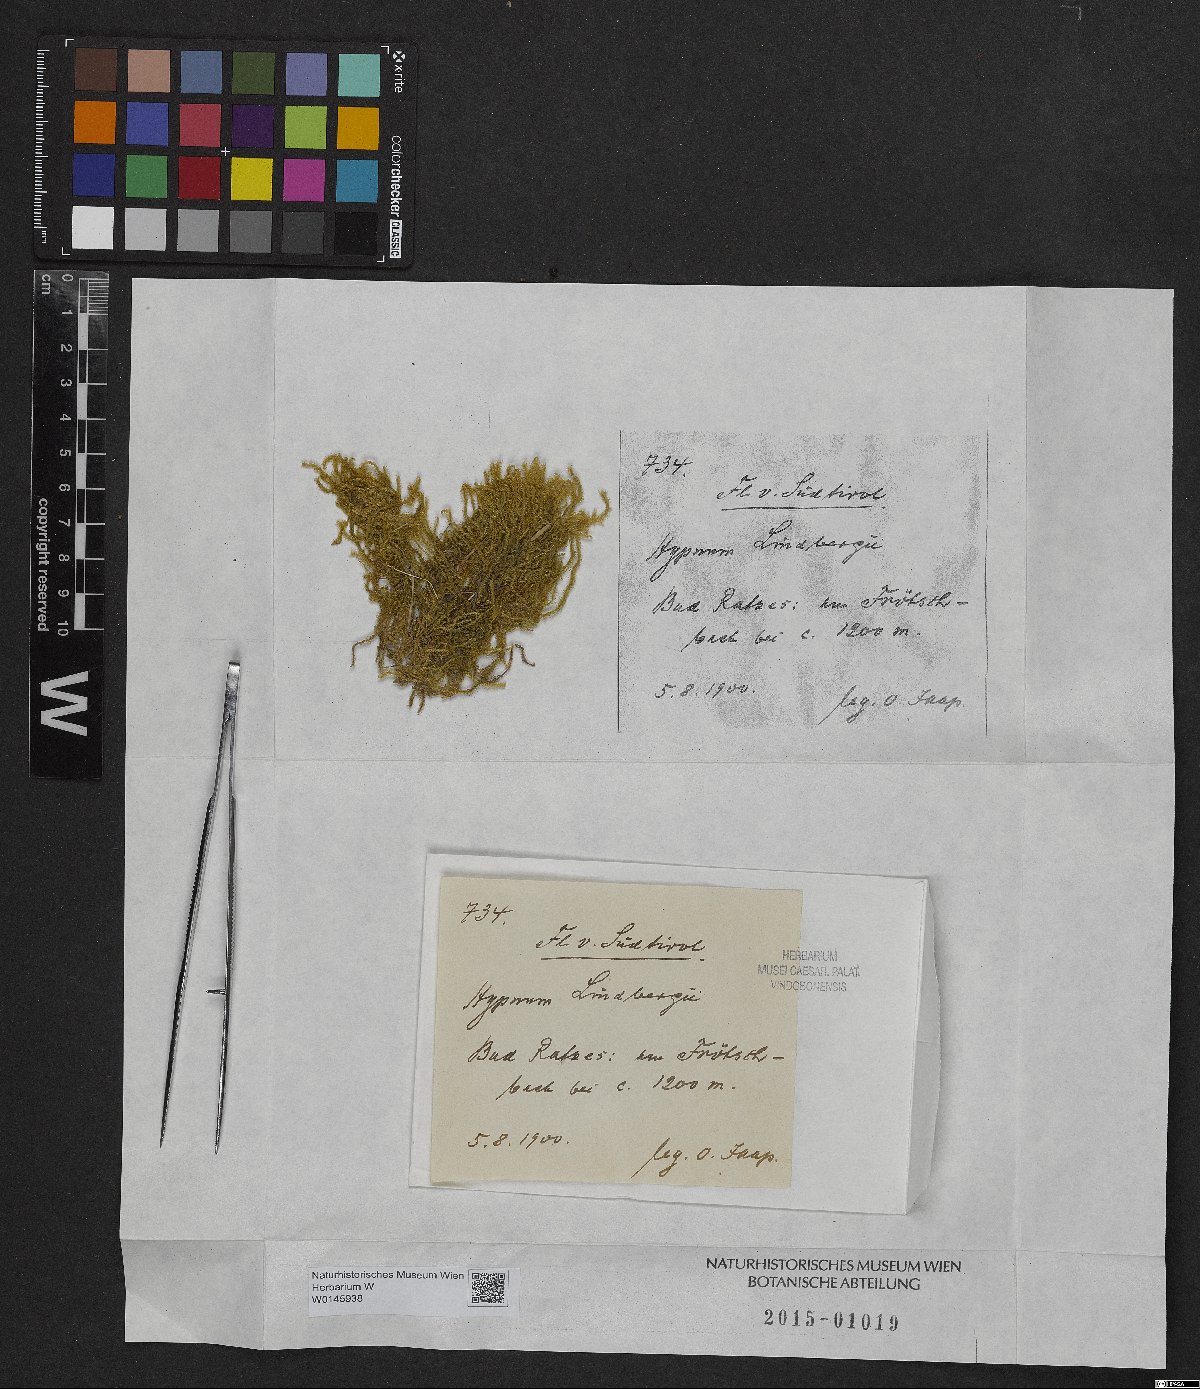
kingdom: Plantae
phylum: Bryophyta
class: Bryopsida
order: Hypnales
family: Pylaisiaceae
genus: Calliergonella
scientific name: Calliergonella lindbergii
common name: Lindberg's plait-moss
